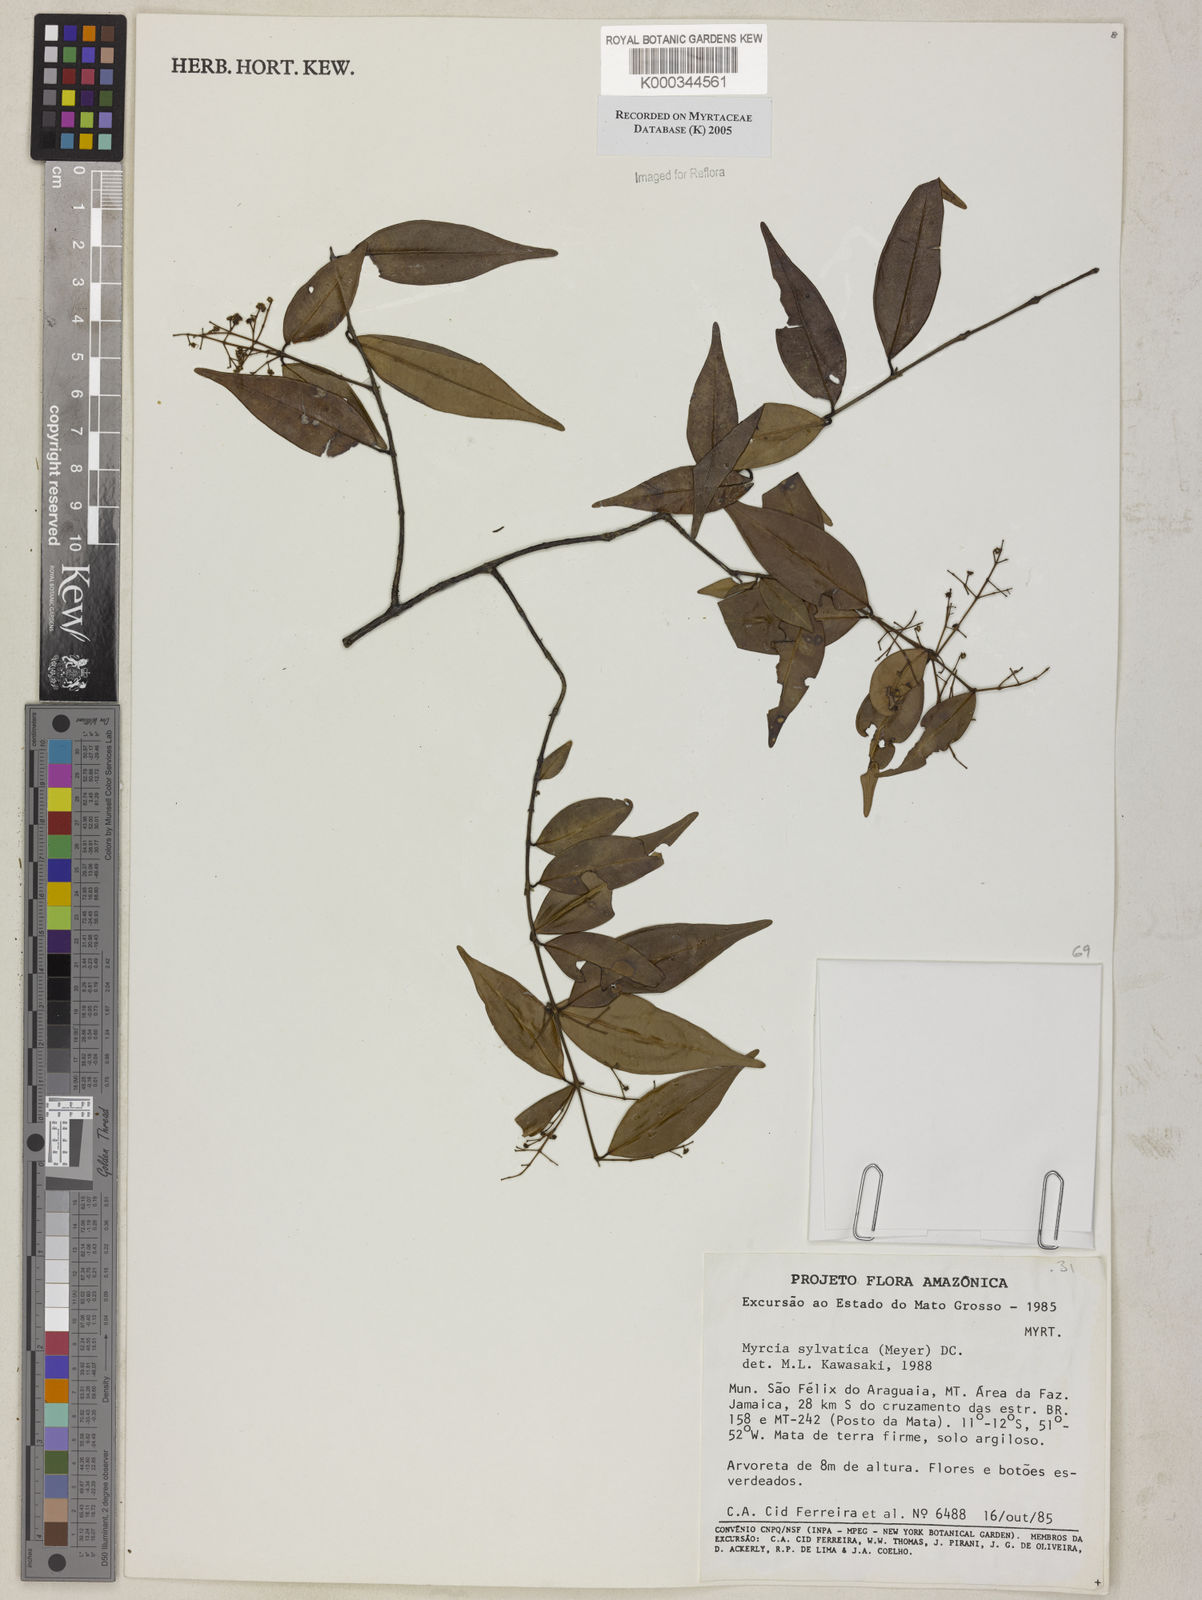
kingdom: Plantae
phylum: Tracheophyta
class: Magnoliopsida
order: Myrtales
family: Myrtaceae
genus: Myrcia
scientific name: Myrcia sylvatica
